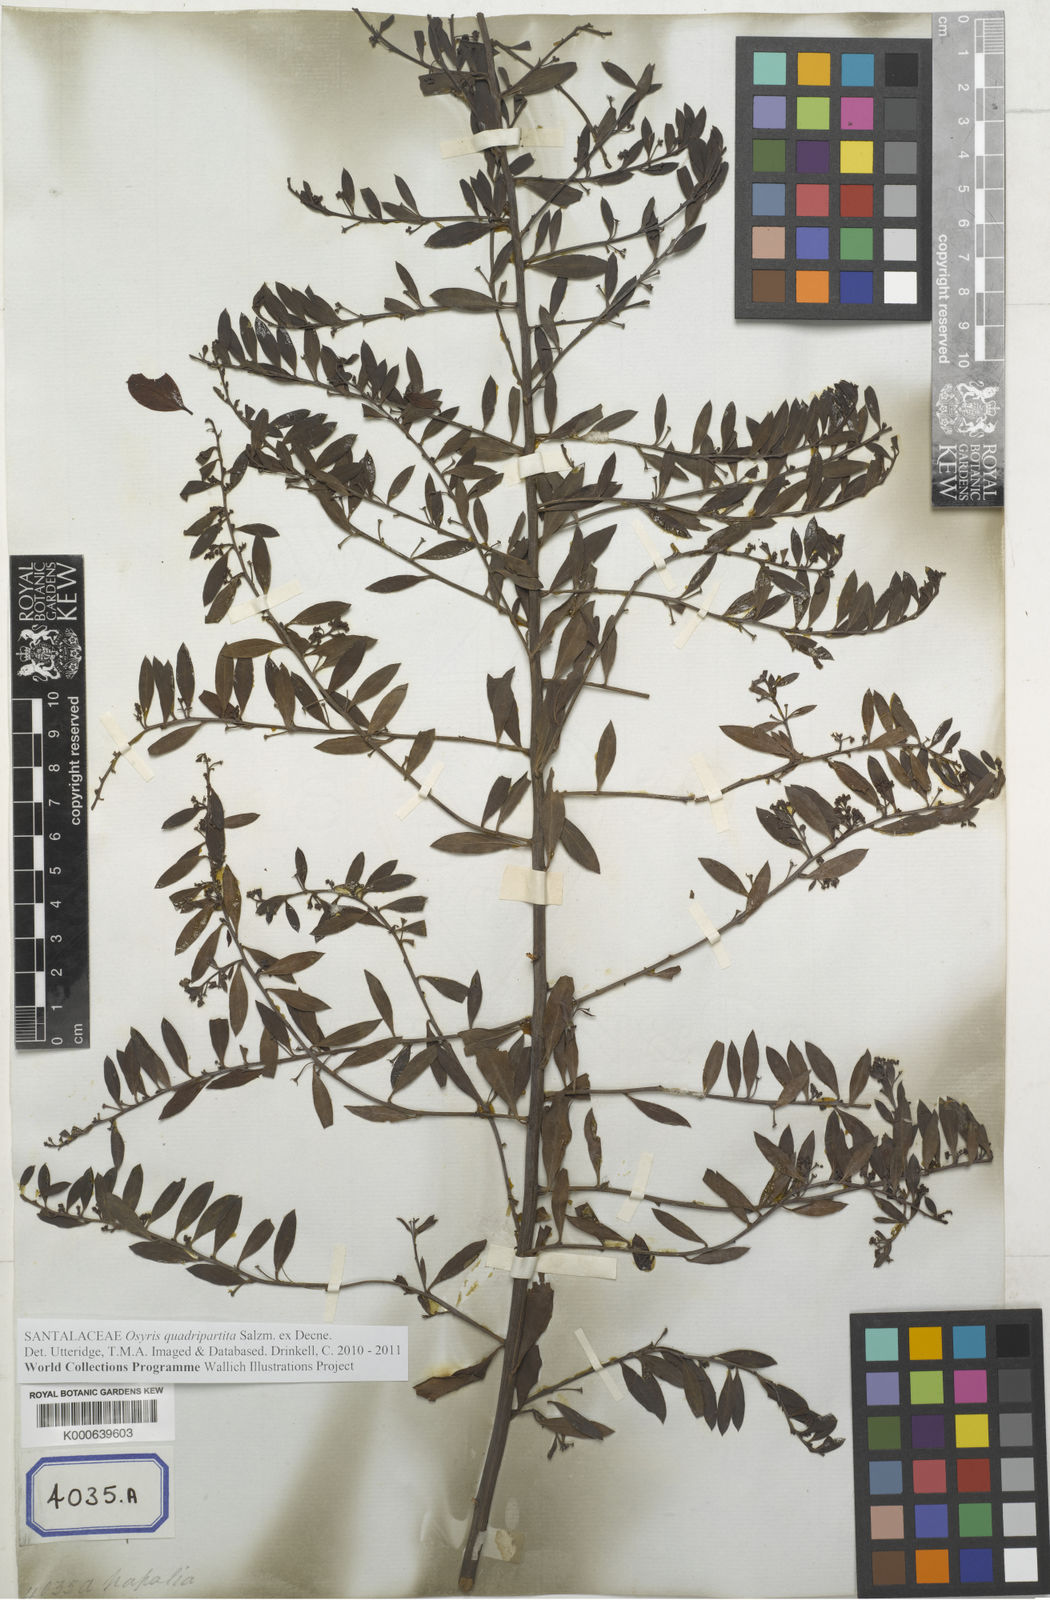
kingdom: Plantae
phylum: Tracheophyta
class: Magnoliopsida
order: Santalales
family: Santalaceae
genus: Osyris
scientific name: Osyris
